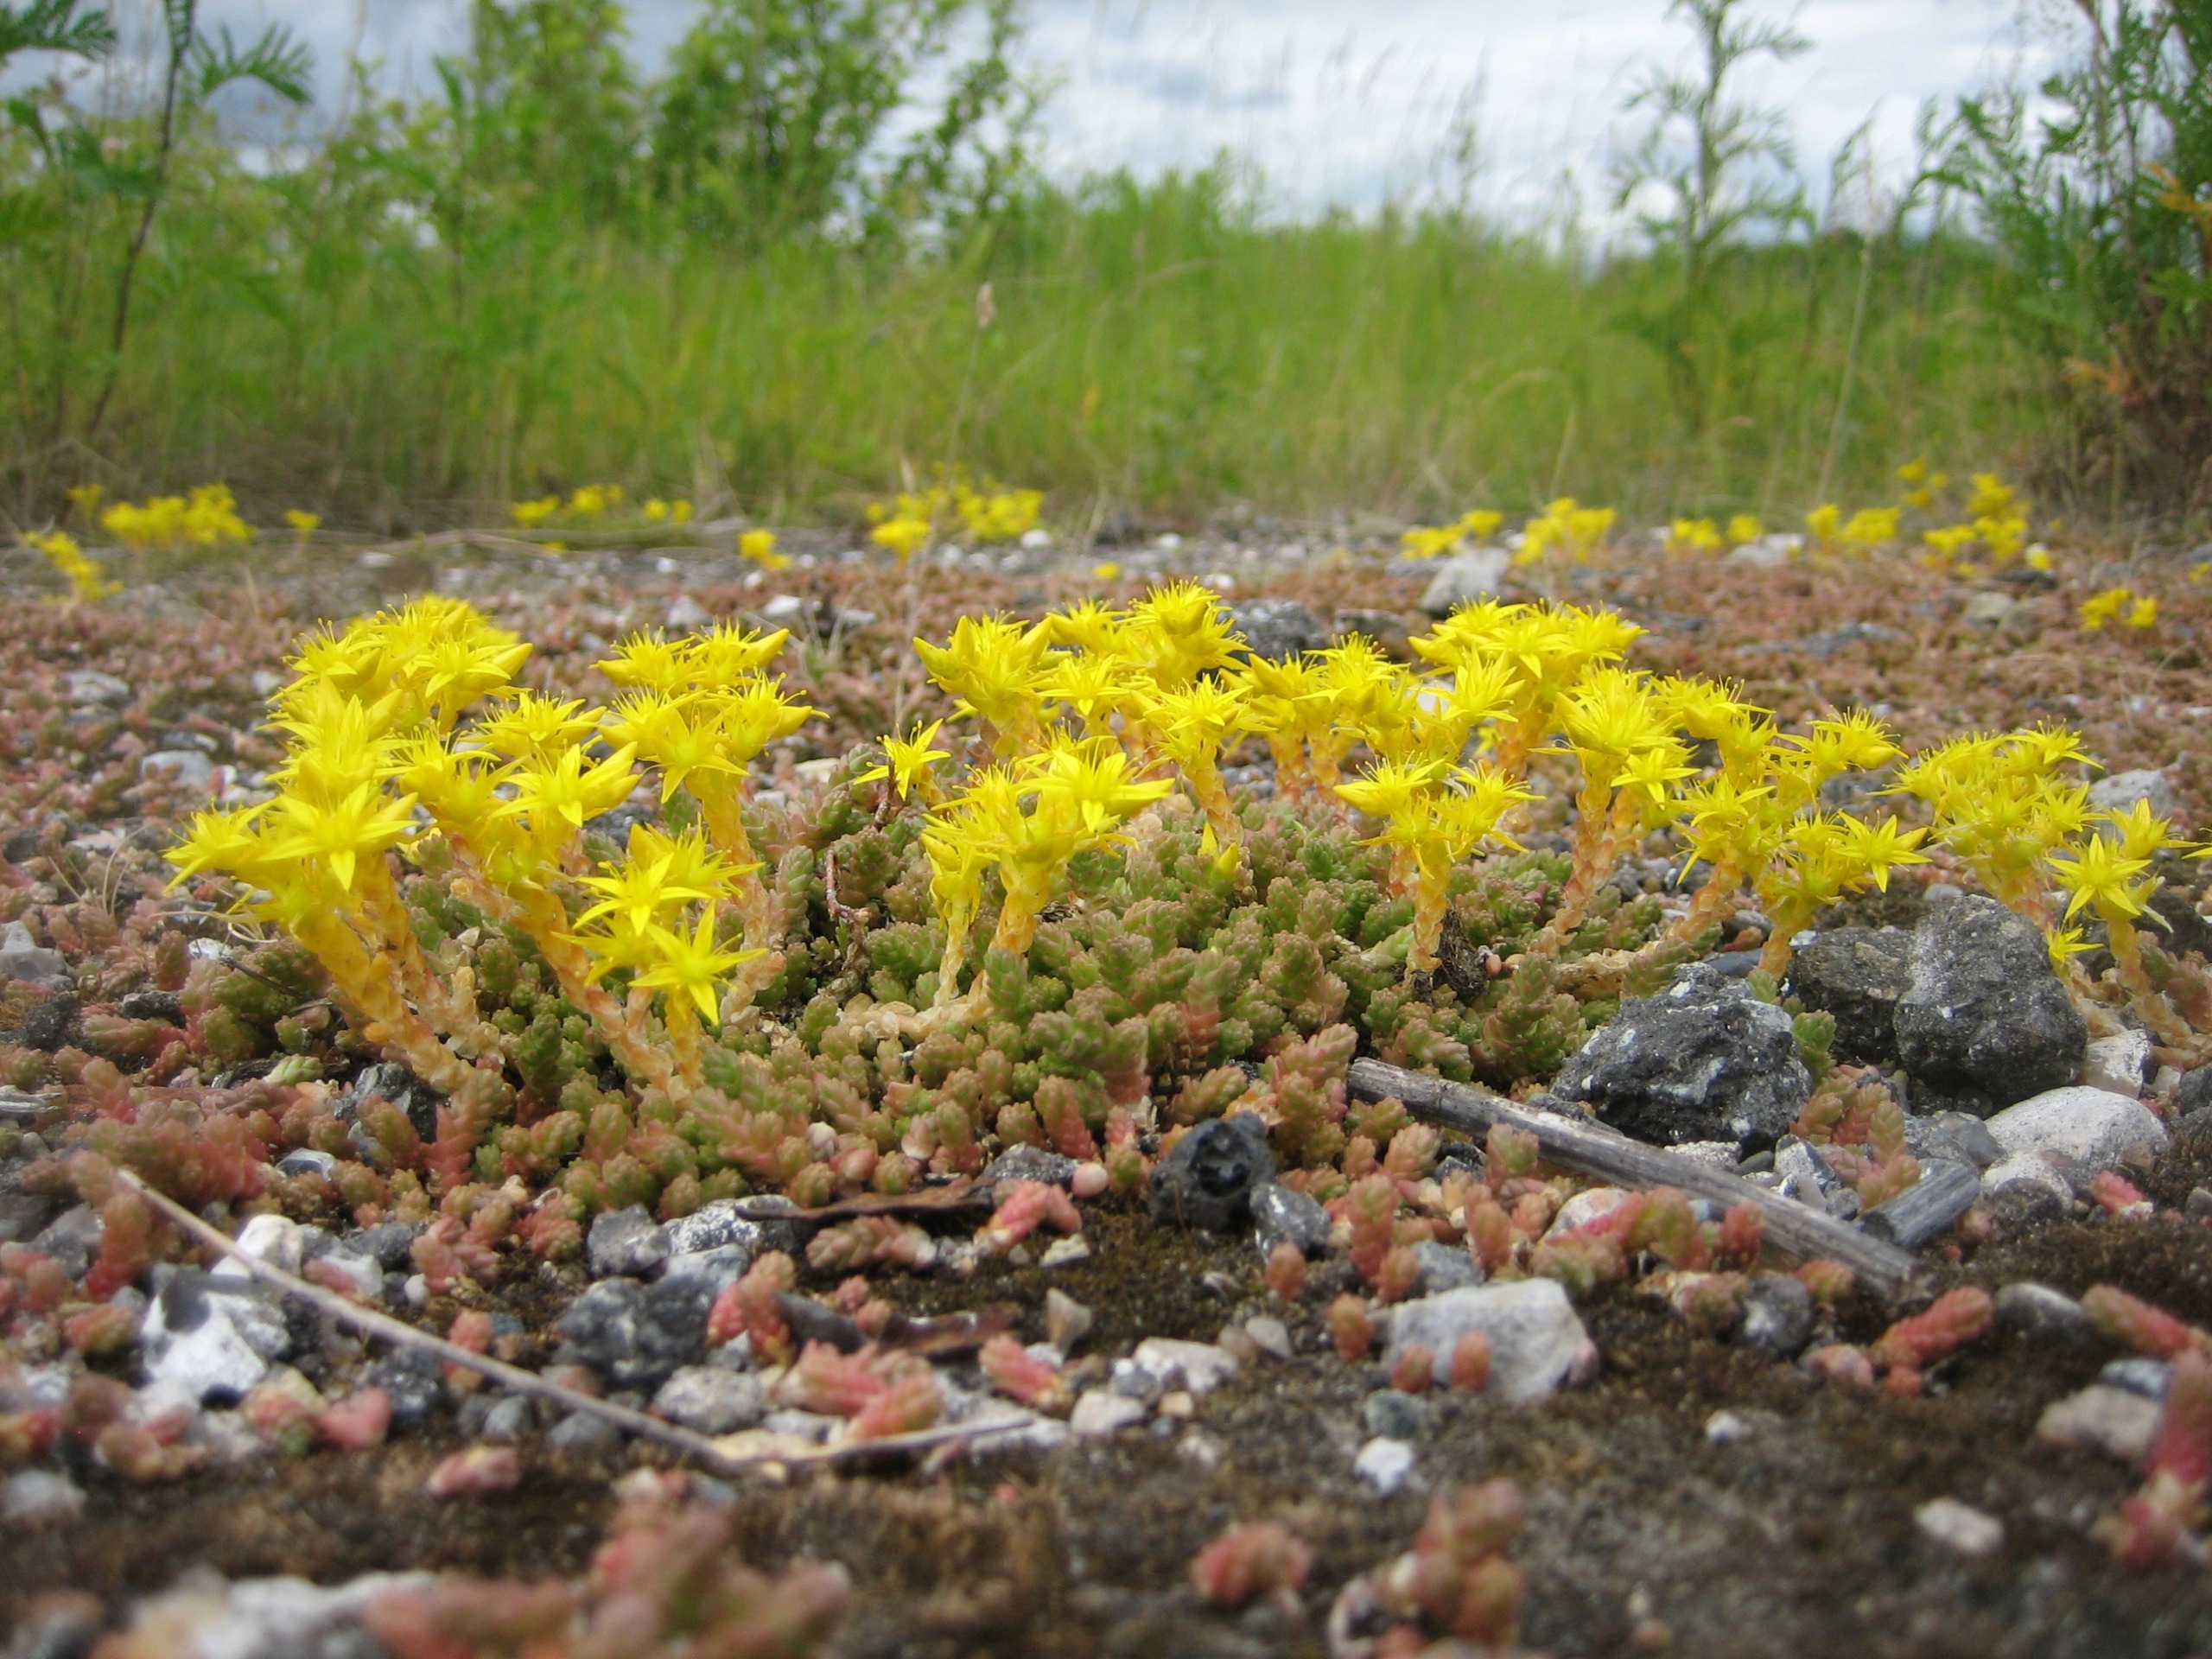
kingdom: Plantae
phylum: Tracheophyta
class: Magnoliopsida
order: Saxifragales
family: Crassulaceae
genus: Sedum
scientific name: Sedum acre
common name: Bidende stenurt
